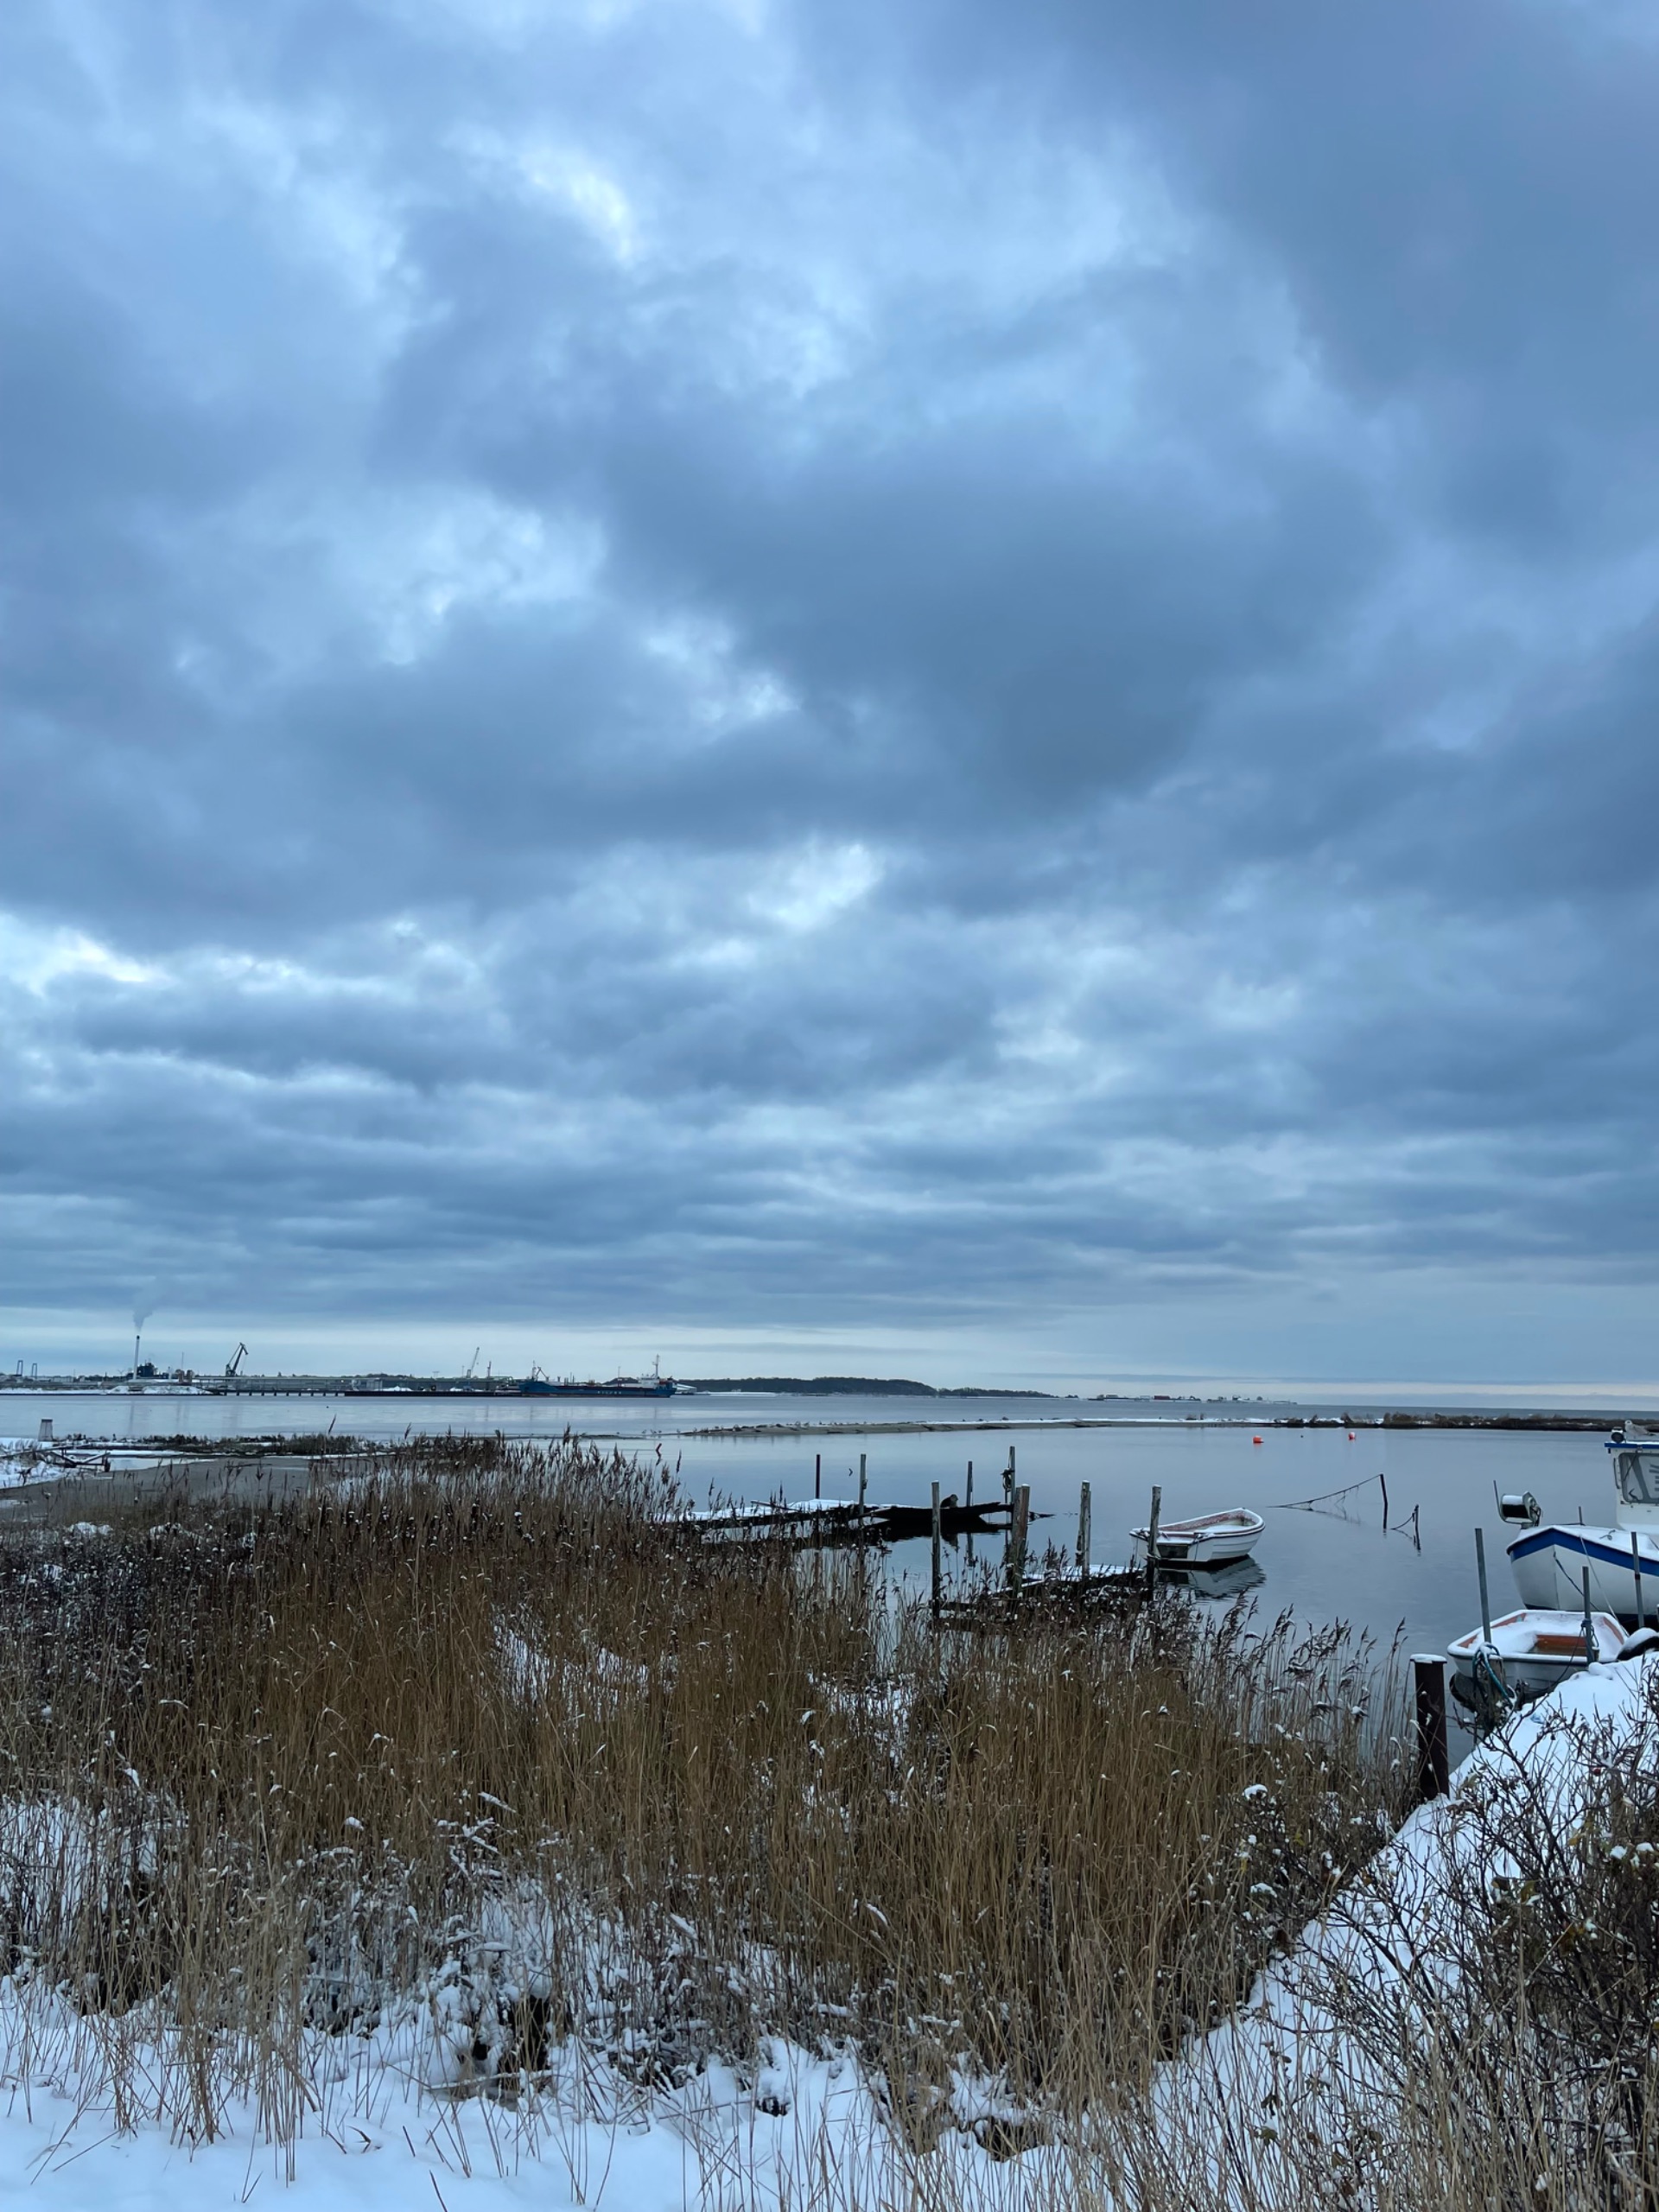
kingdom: Animalia
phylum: Chordata
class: Mammalia
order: Carnivora
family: Phocidae
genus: Phoca
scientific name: Phoca vitulina
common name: Spættet sæl
